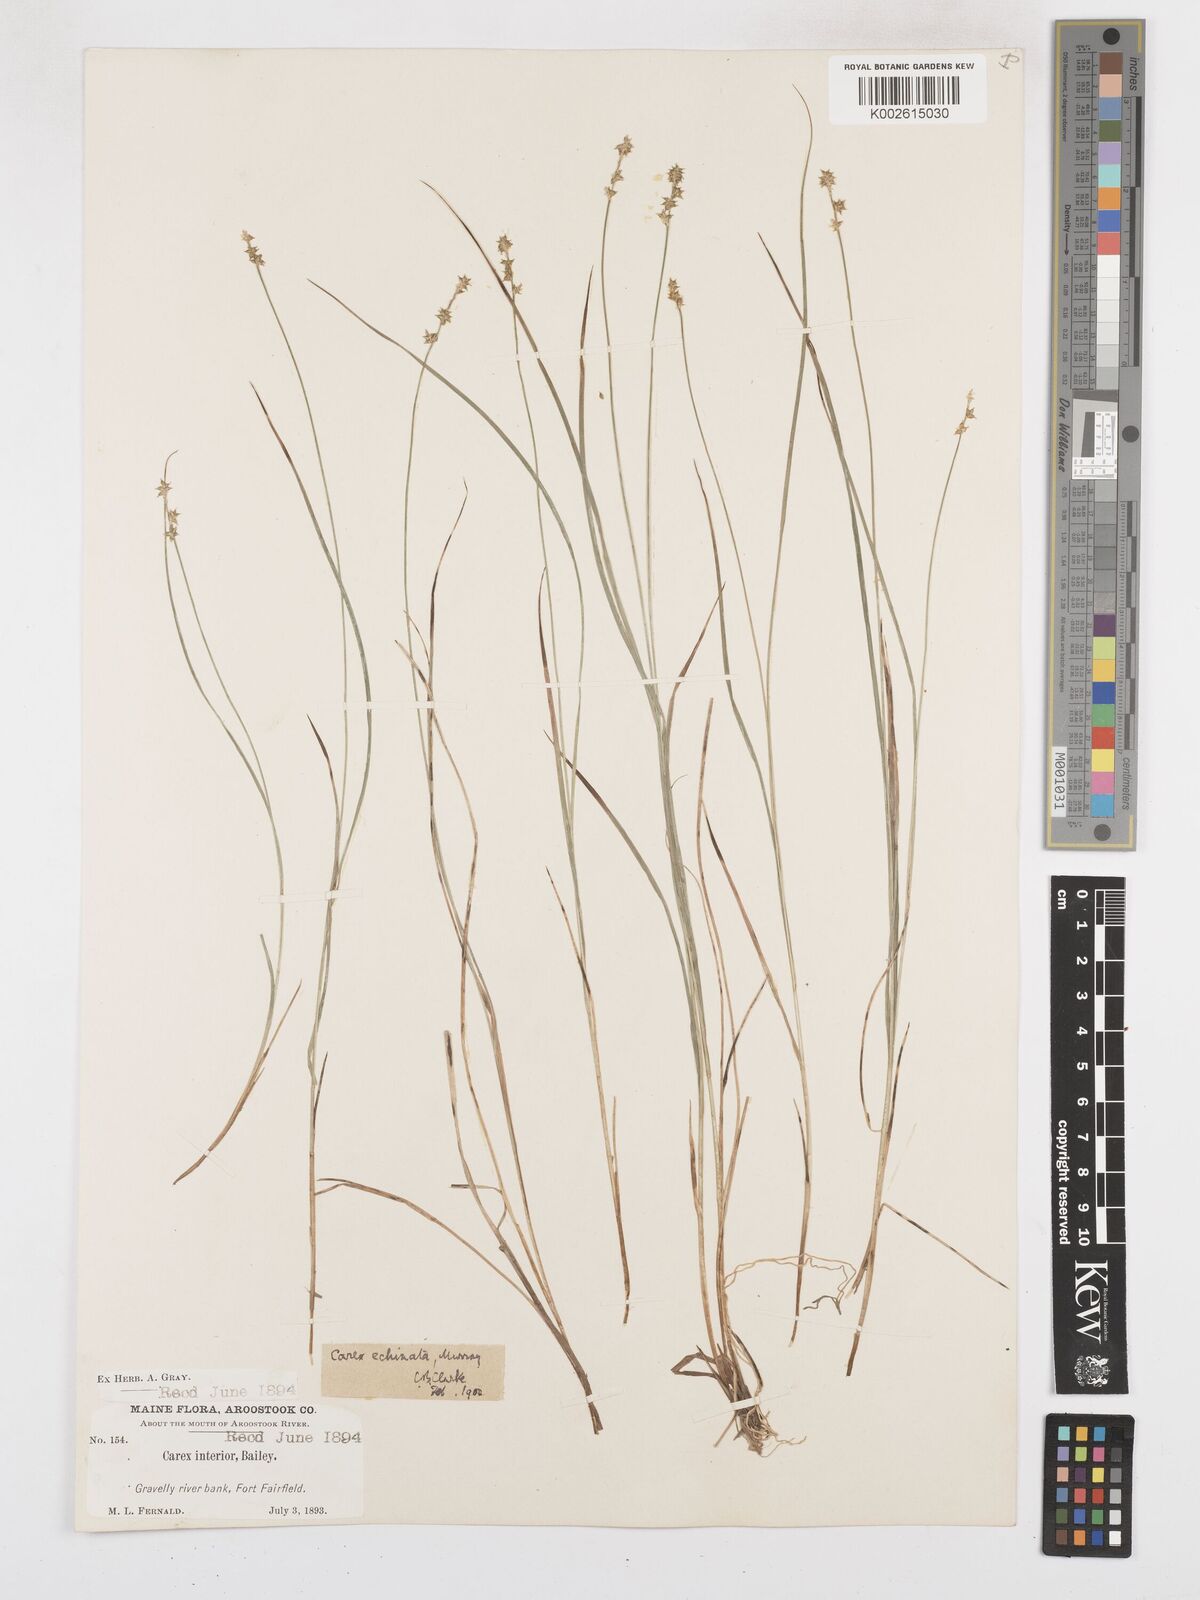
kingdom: Plantae
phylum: Tracheophyta
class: Liliopsida
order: Poales
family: Cyperaceae
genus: Carex
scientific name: Carex interior
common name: Inland sedge
